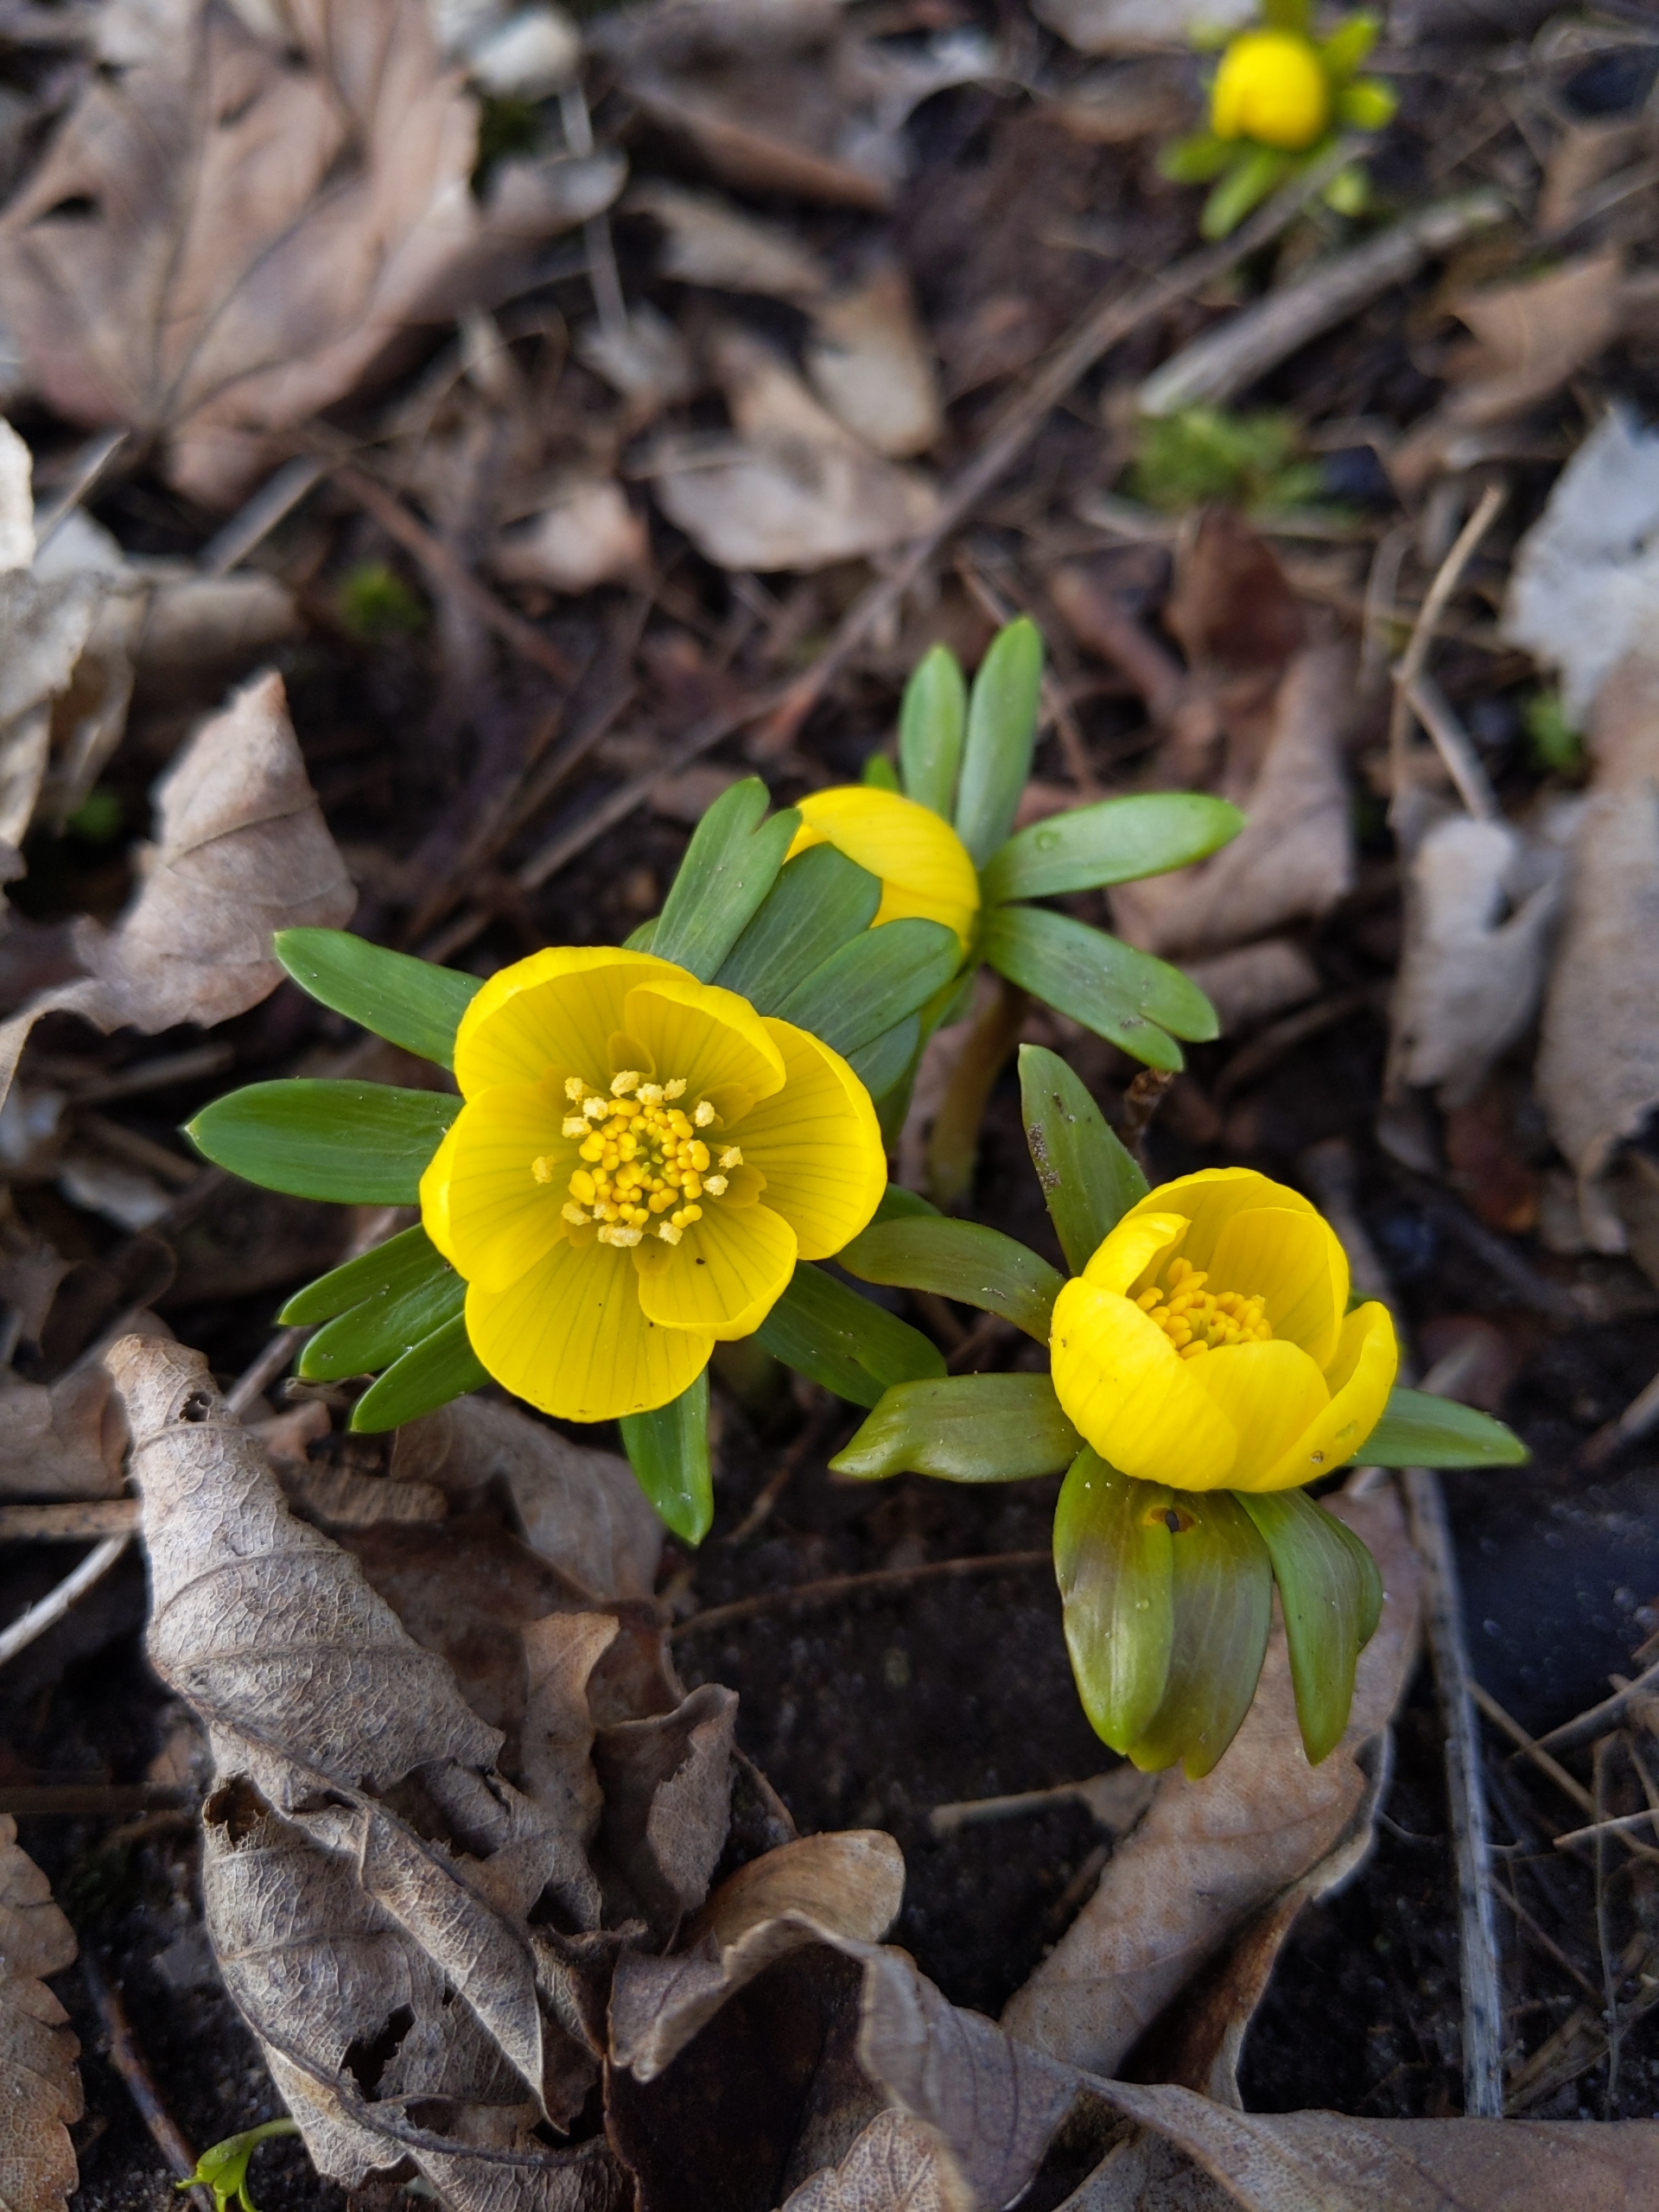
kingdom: Plantae
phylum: Tracheophyta
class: Magnoliopsida
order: Ranunculales
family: Ranunculaceae
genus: Eranthis
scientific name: Eranthis hyemalis
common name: Erantis
